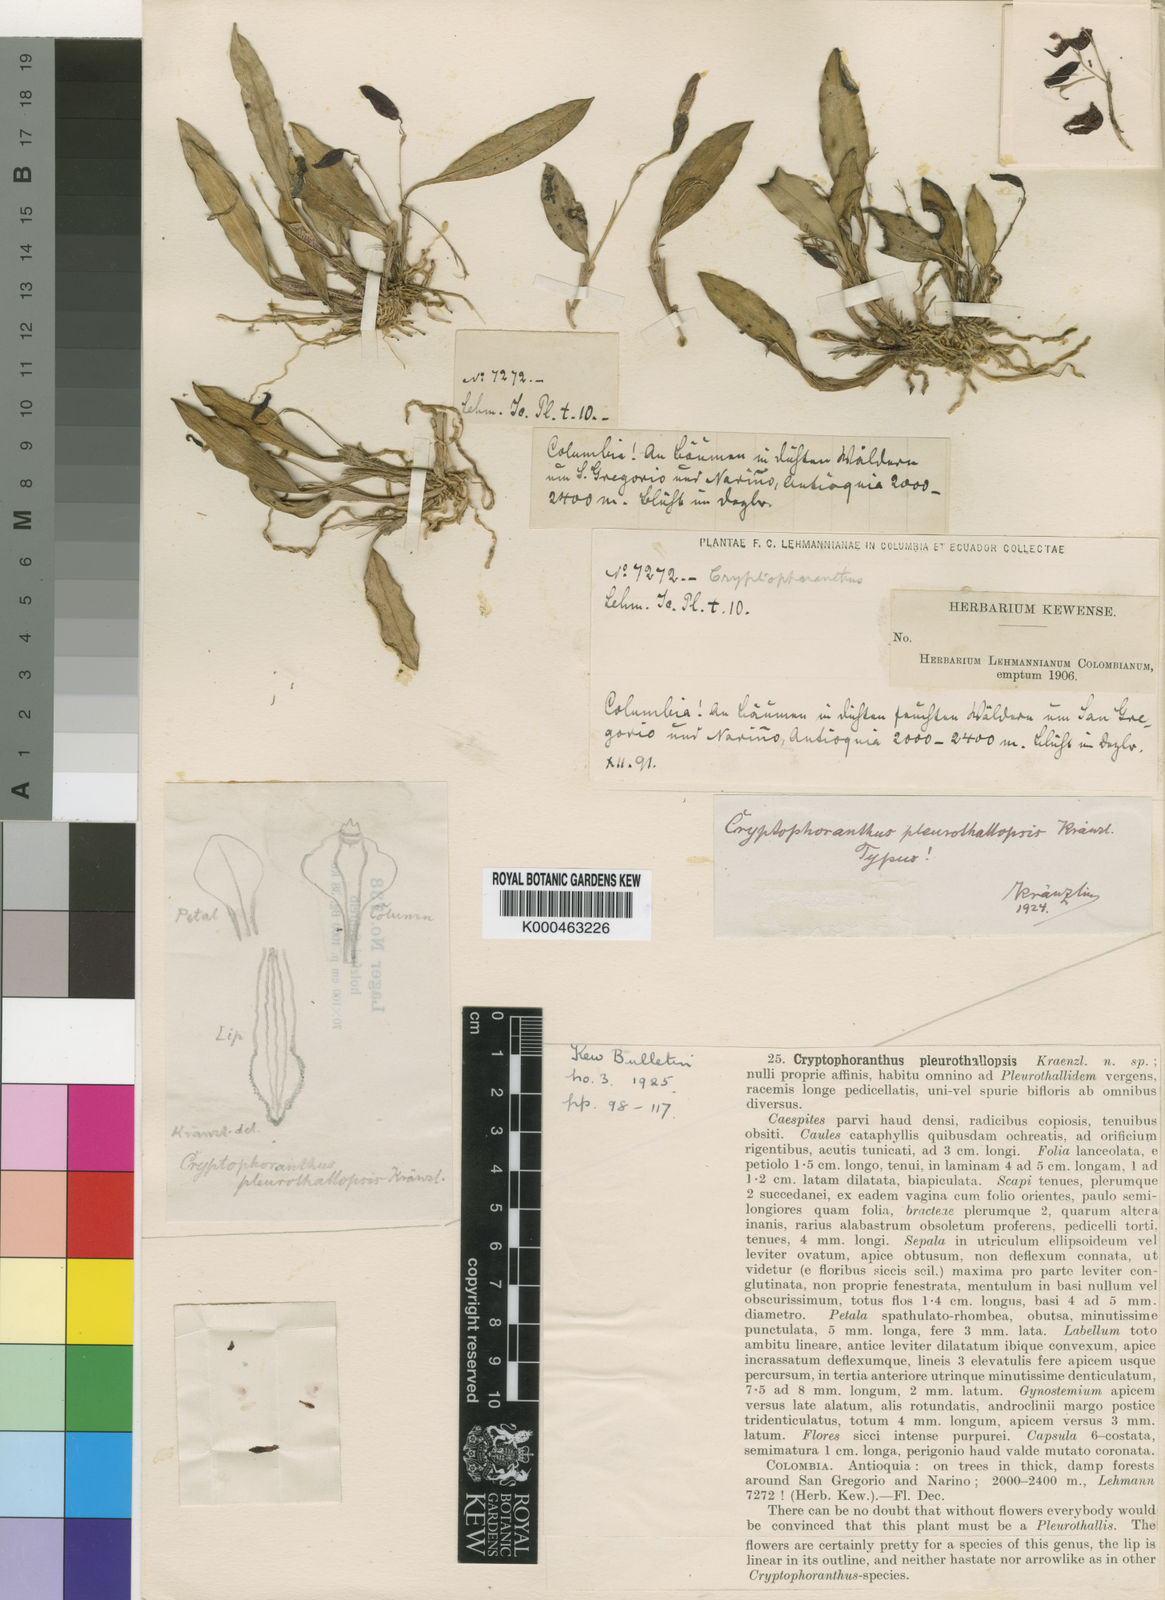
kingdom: Plantae
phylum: Tracheophyta
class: Liliopsida
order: Asparagales
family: Orchidaceae
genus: Acianthera
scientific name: Acianthera
